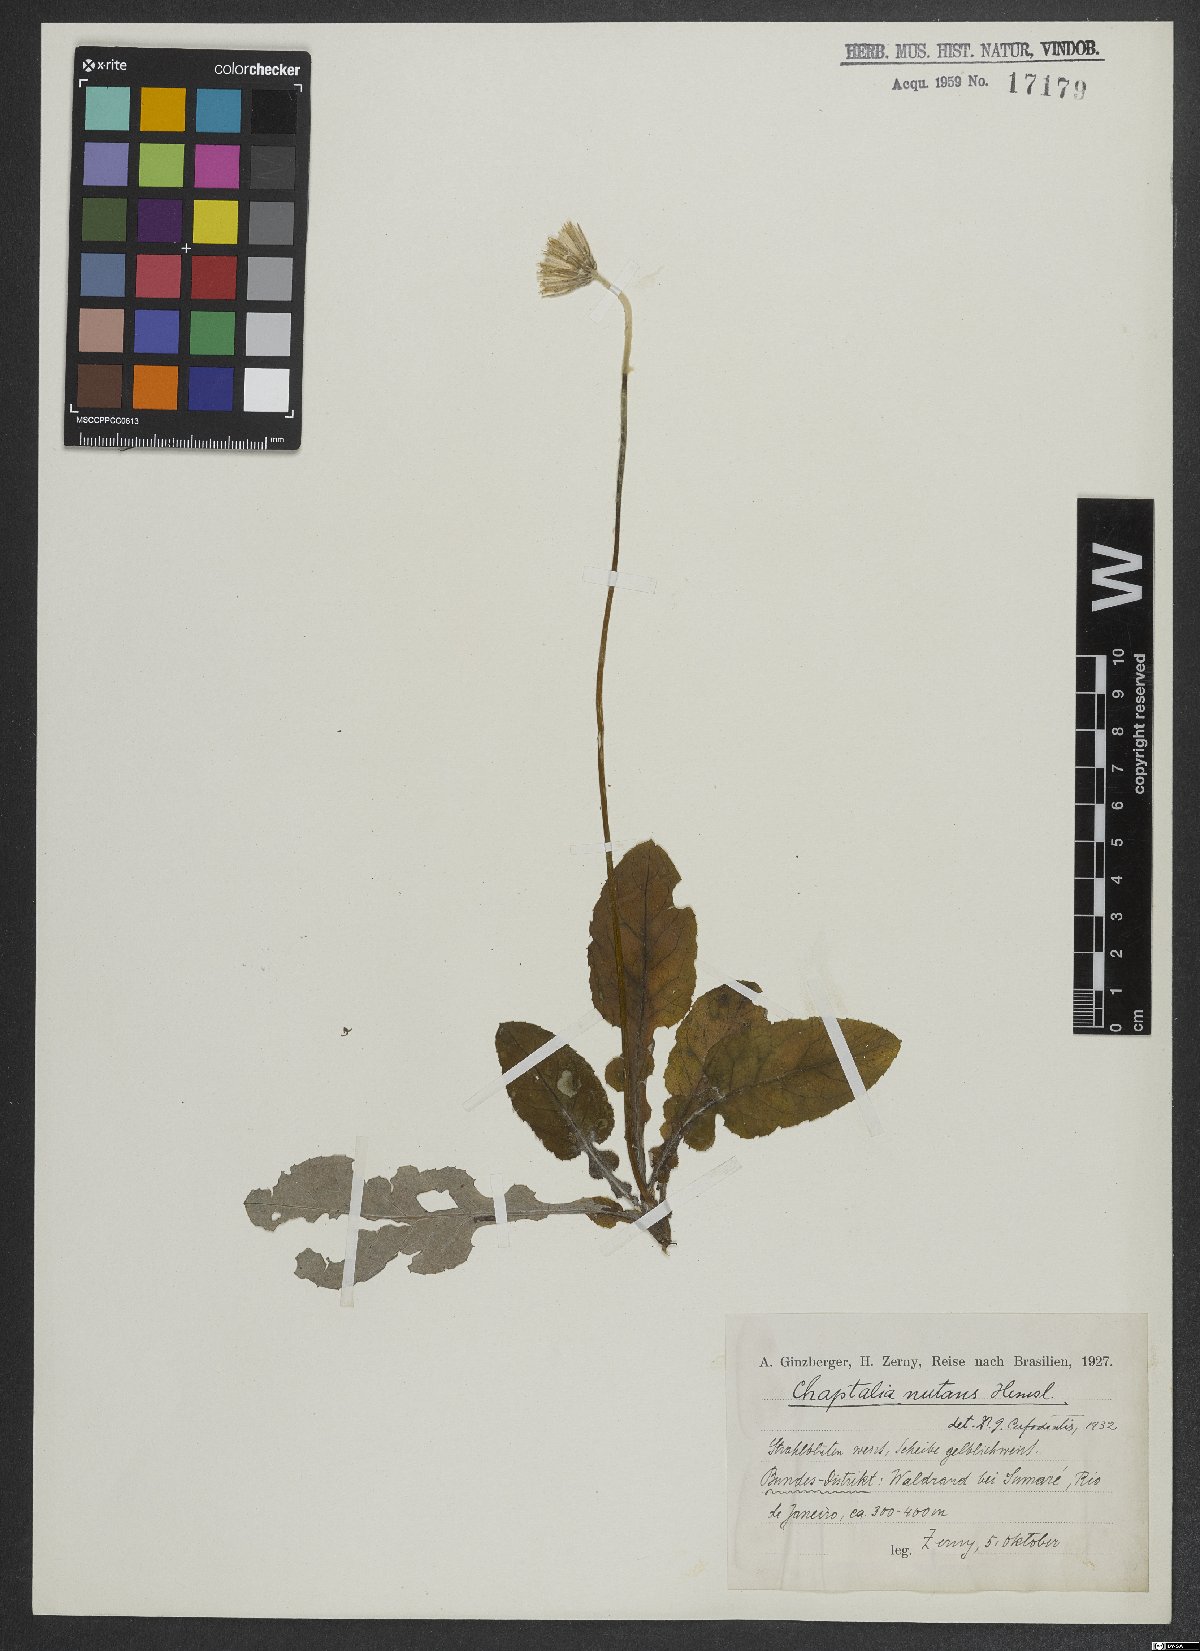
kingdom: Plantae
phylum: Tracheophyta
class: Magnoliopsida
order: Asterales
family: Asteraceae
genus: Chaptalia
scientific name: Chaptalia nutans
